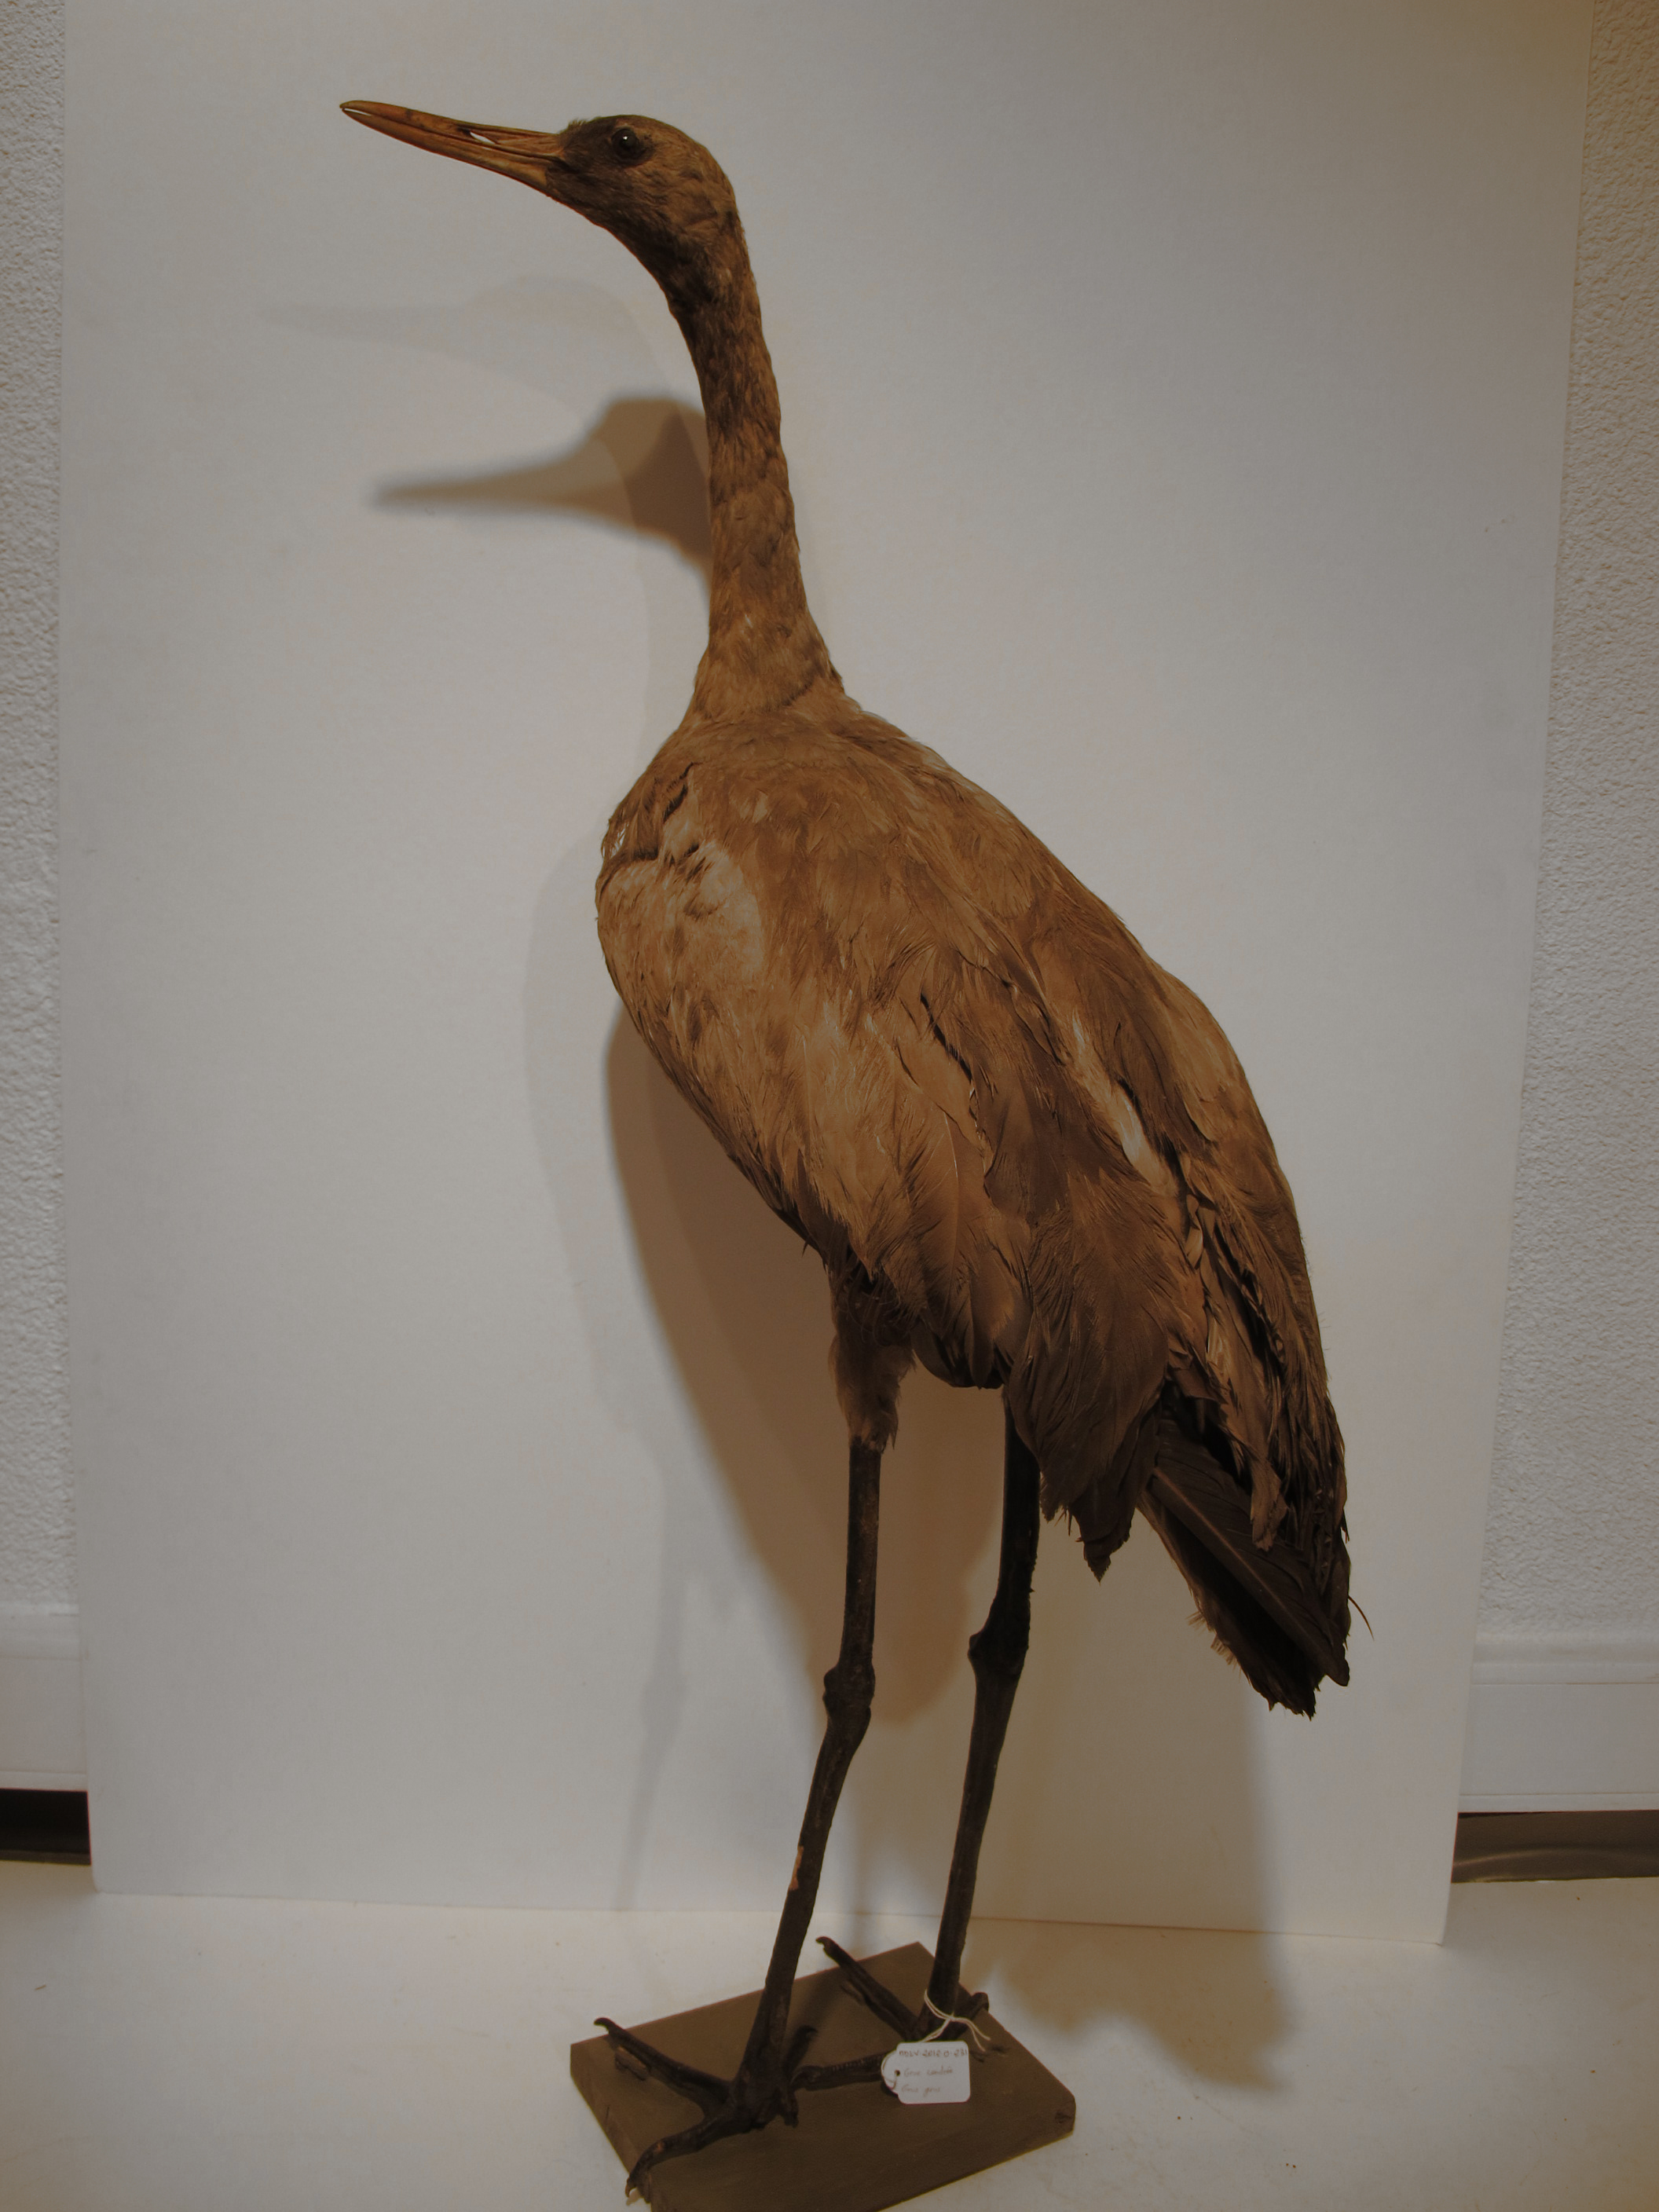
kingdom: Animalia
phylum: Chordata
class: Aves
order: Gruiformes
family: Gruidae
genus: Grus
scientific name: Grus grus
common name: Eurasian Crane
